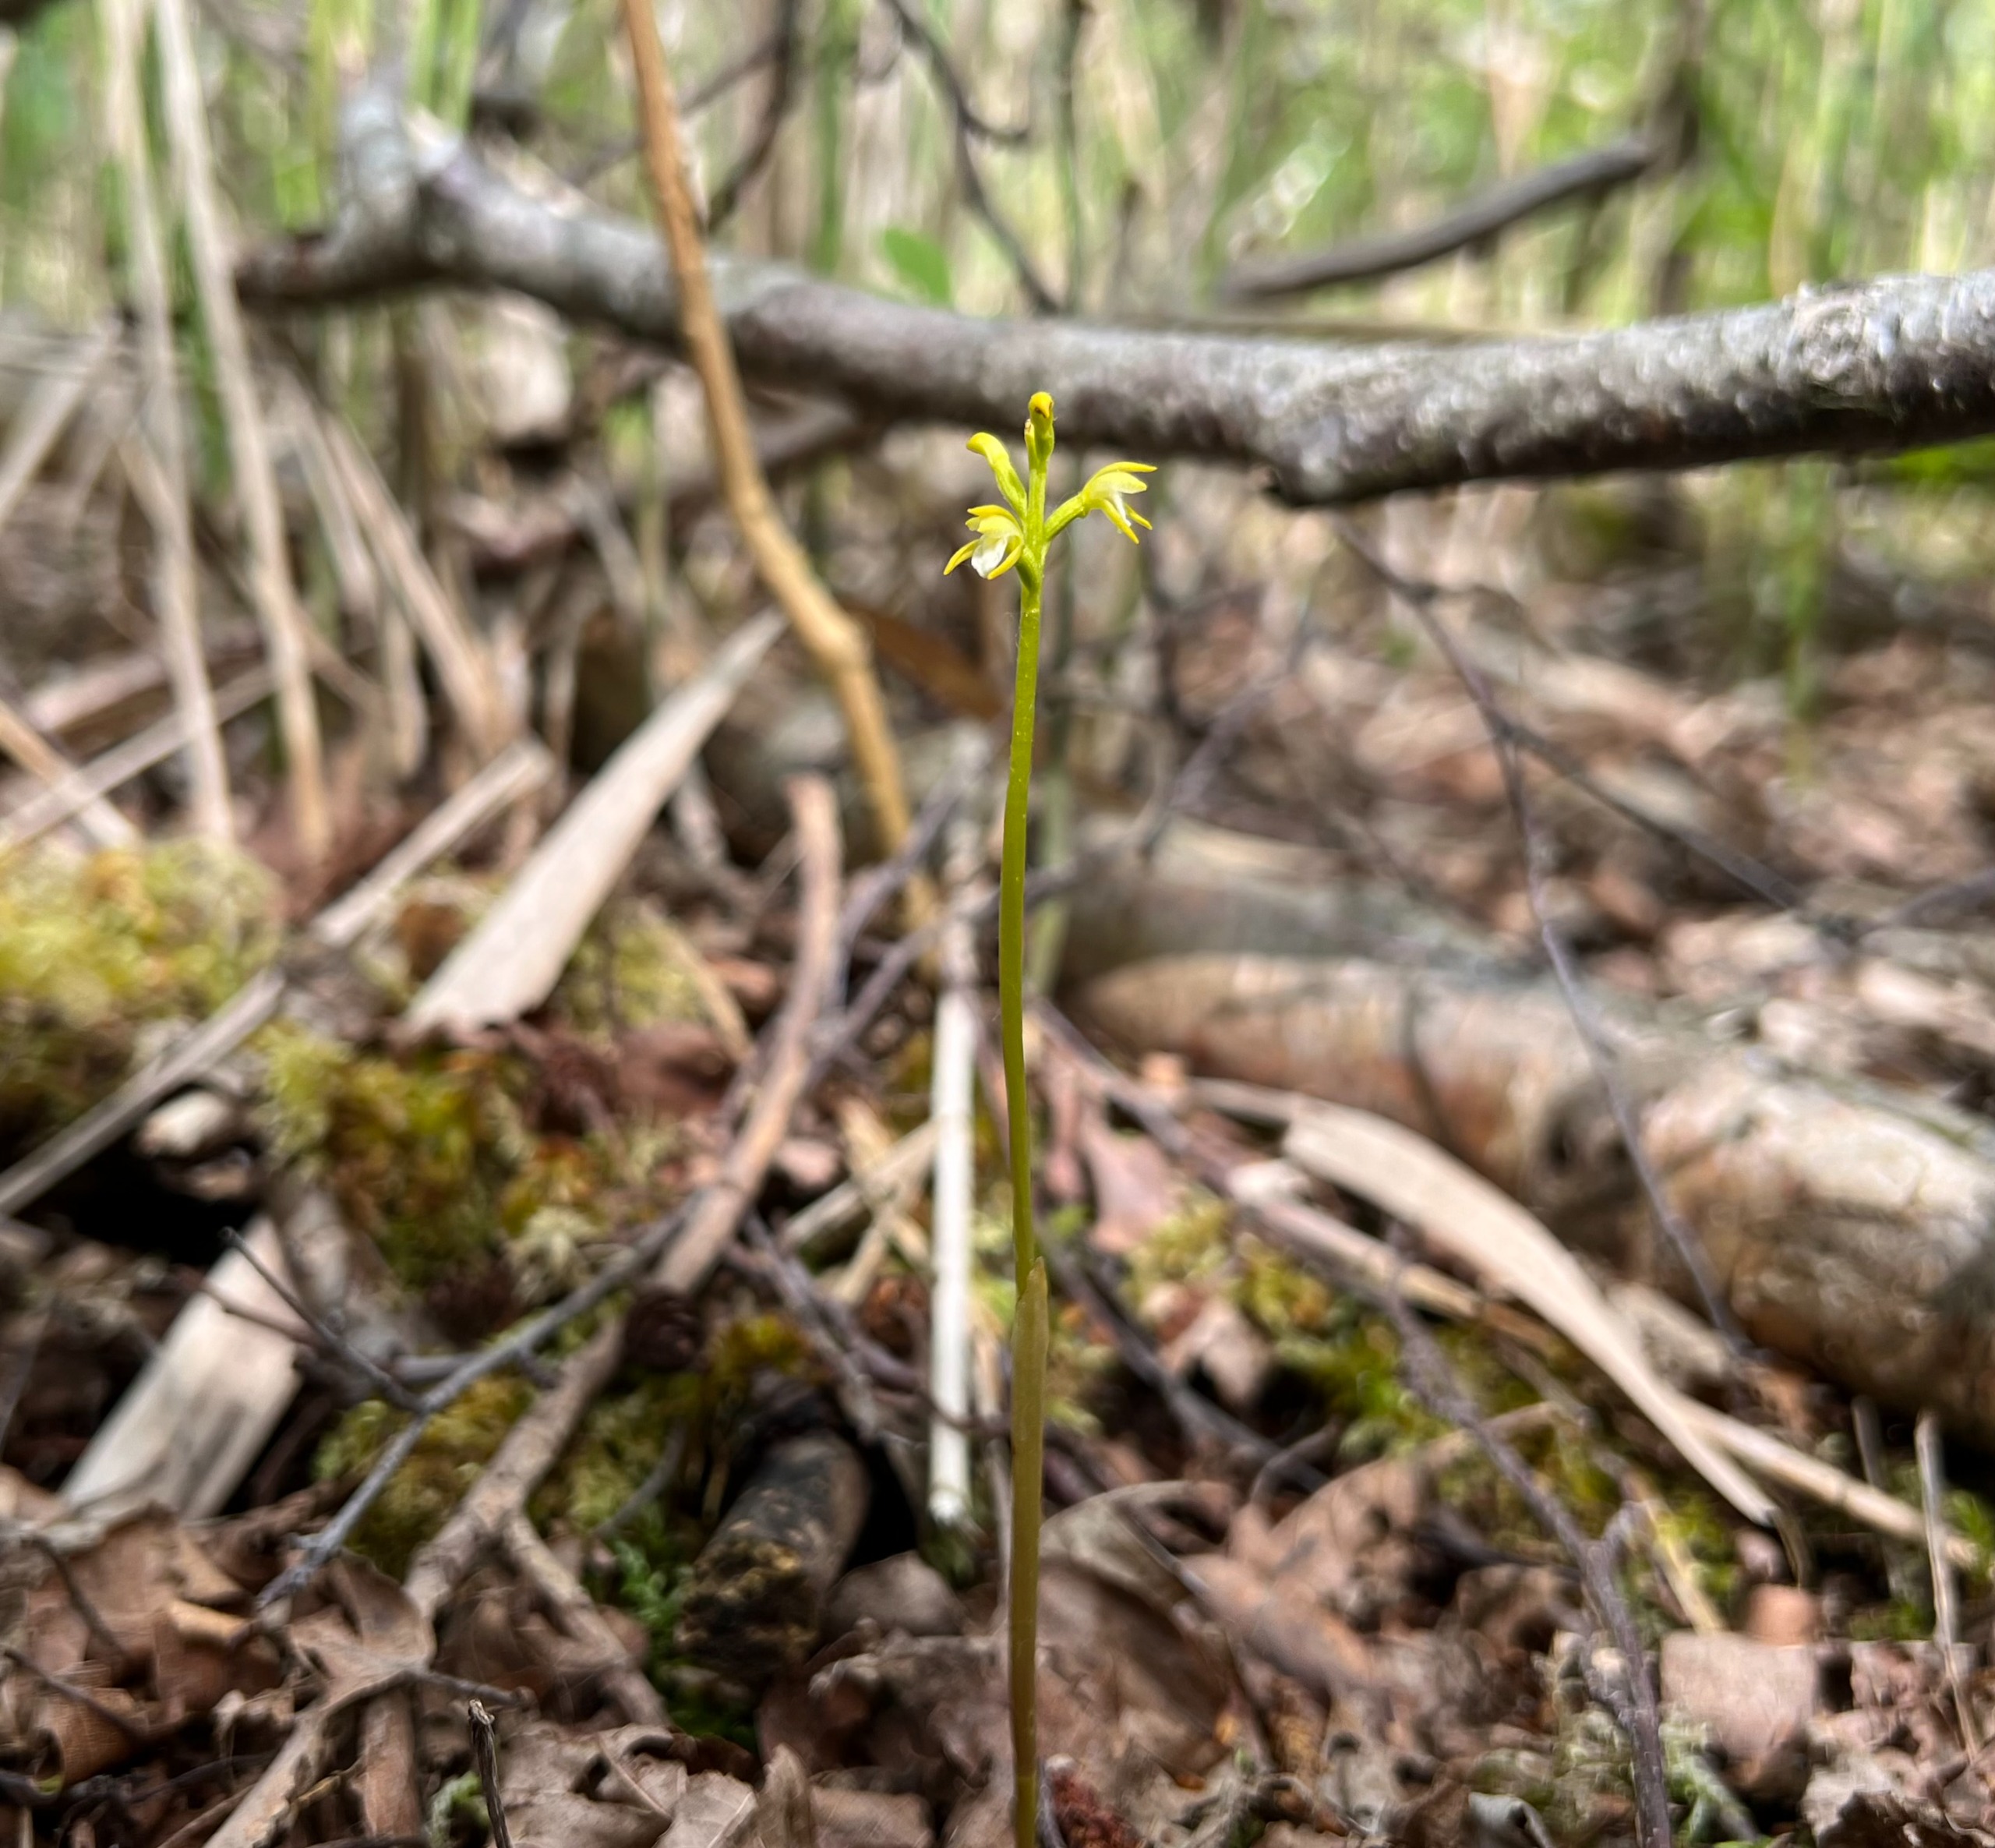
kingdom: Plantae
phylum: Tracheophyta
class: Liliopsida
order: Asparagales
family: Orchidaceae
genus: Corallorhiza
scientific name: Corallorhiza trifida
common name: Koralrod
